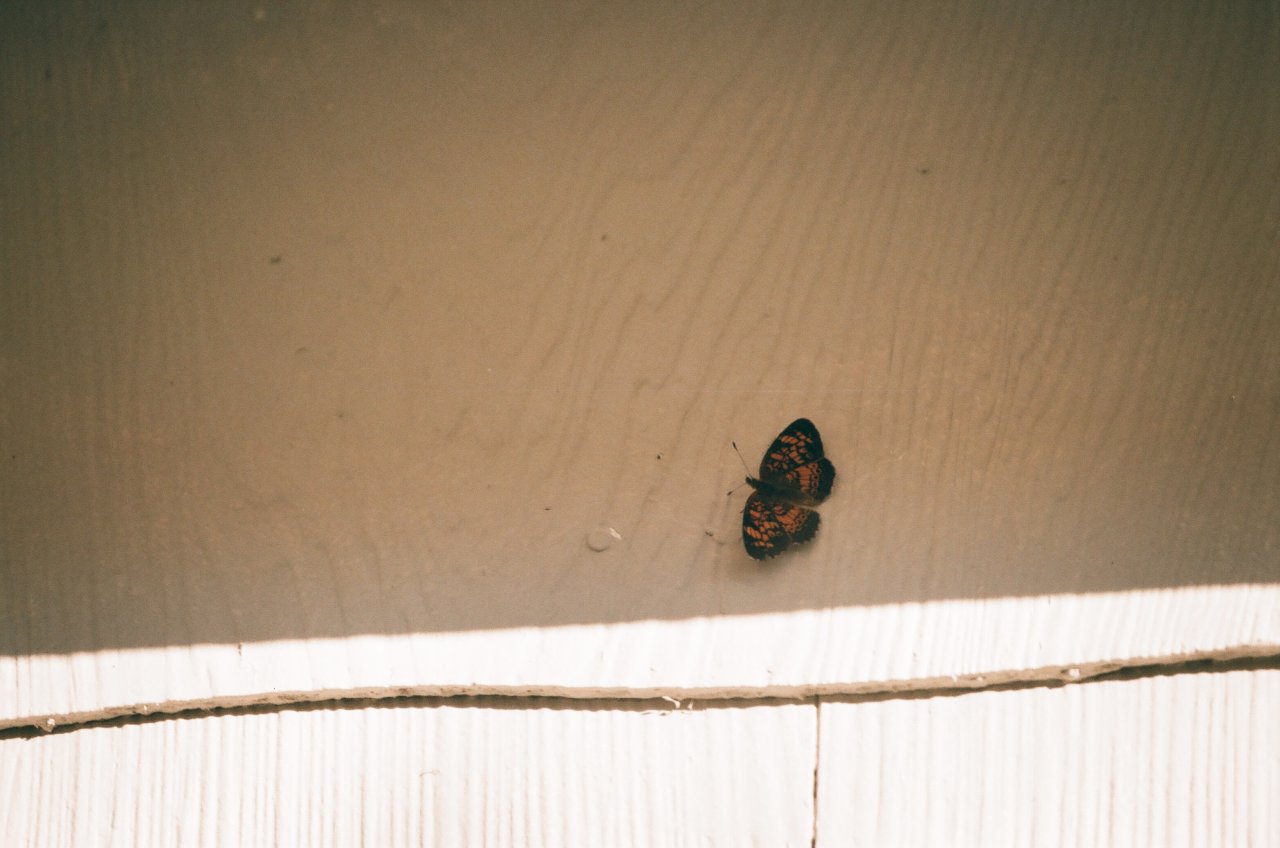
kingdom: Animalia
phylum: Arthropoda
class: Insecta
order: Lepidoptera
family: Nymphalidae
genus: Phyciodes
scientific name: Phyciodes tharos
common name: Pearl Crescent
